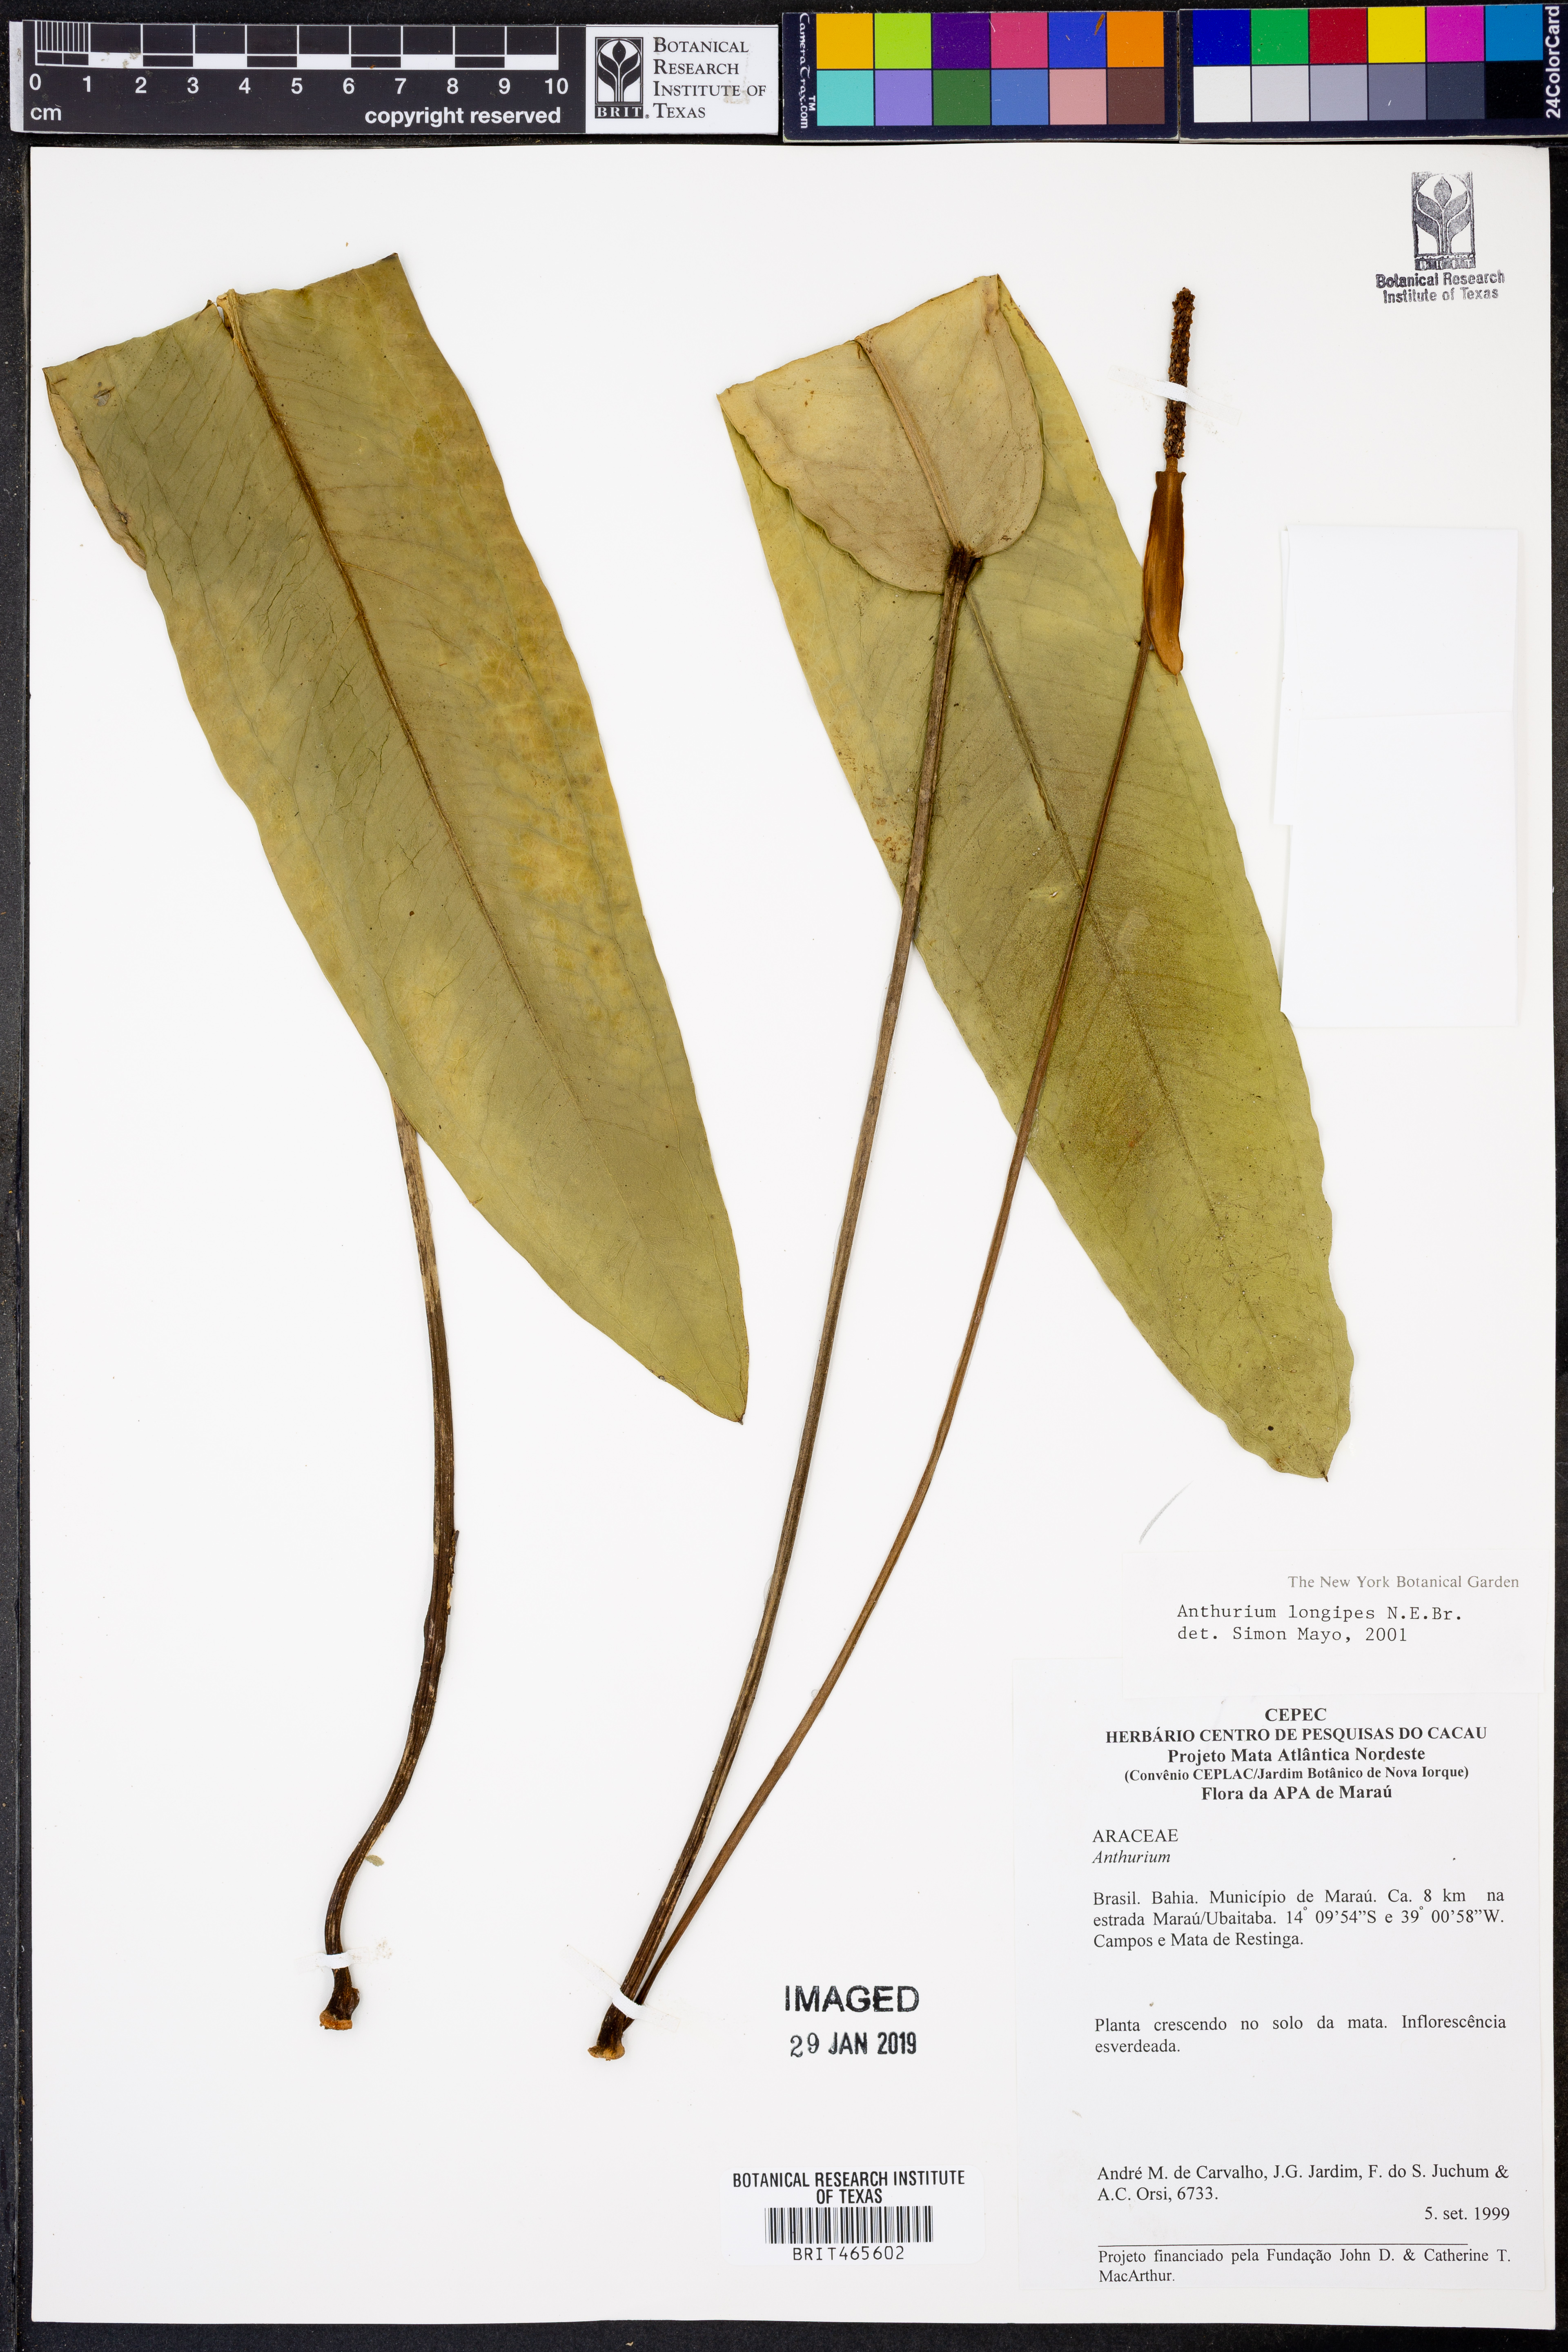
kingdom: Plantae
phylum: Tracheophyta
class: Liliopsida
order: Alismatales
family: Araceae
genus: Anthurium
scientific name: Anthurium longipes
